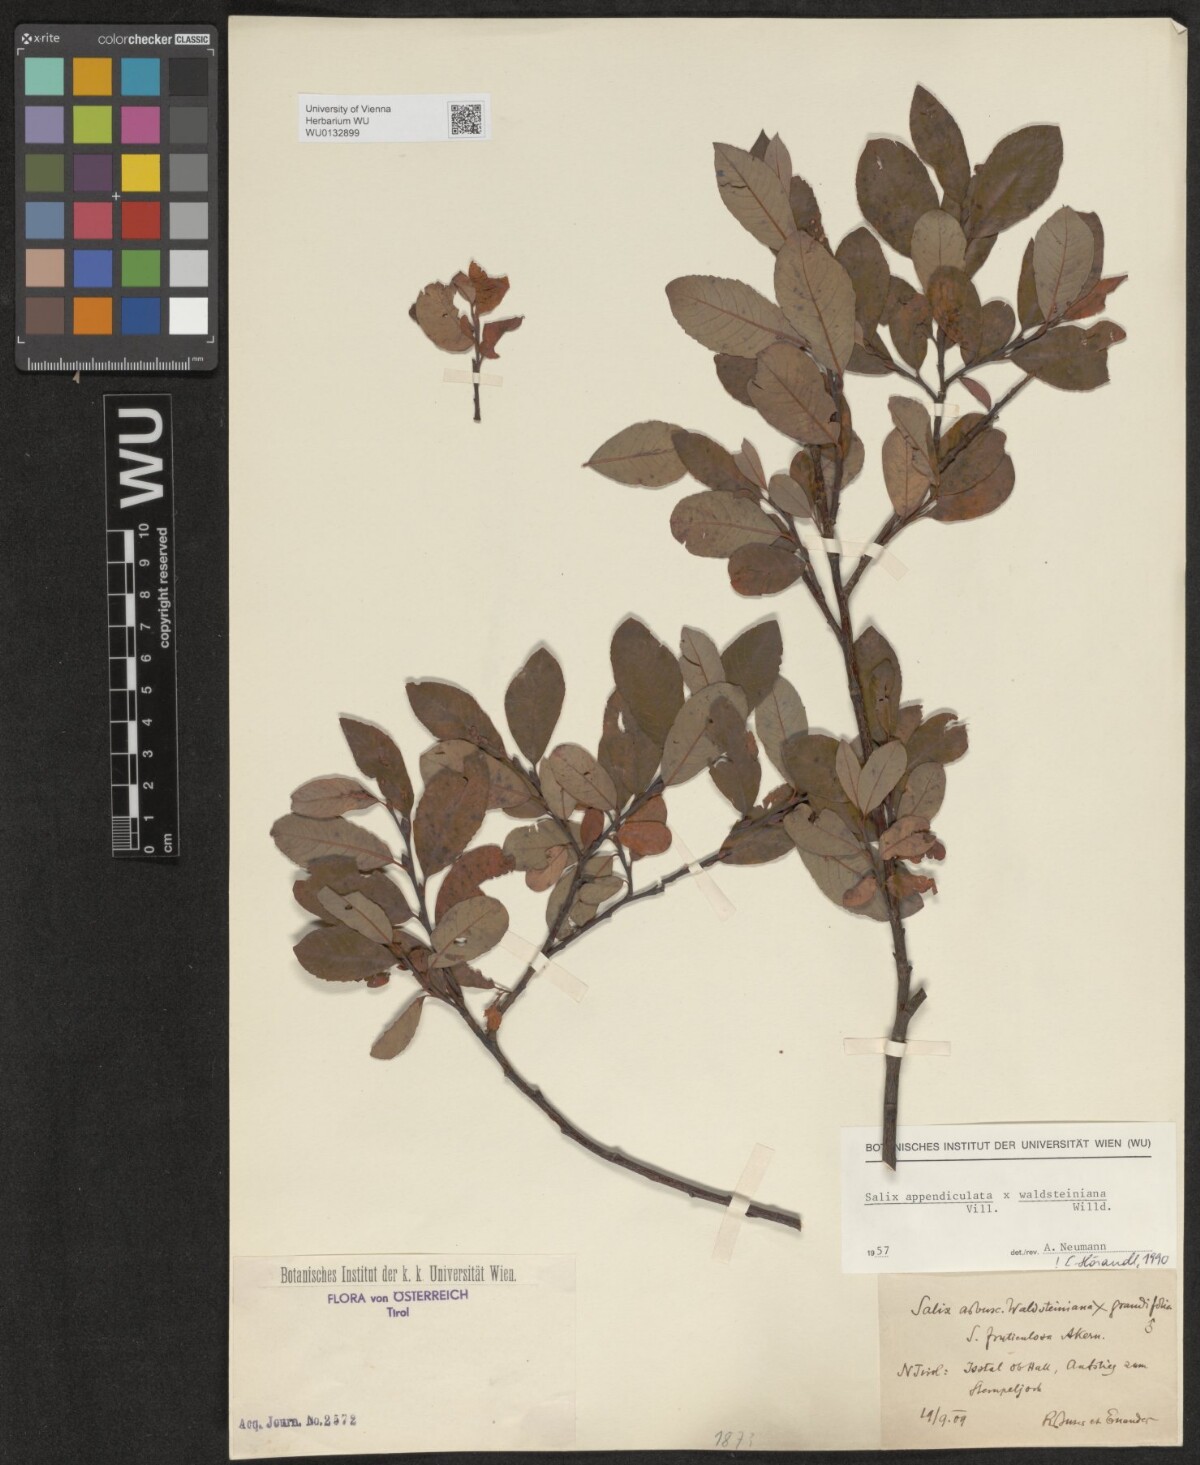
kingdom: Plantae
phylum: Tracheophyta
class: Magnoliopsida
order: Malpighiales
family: Salicaceae
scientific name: Salicaceae
